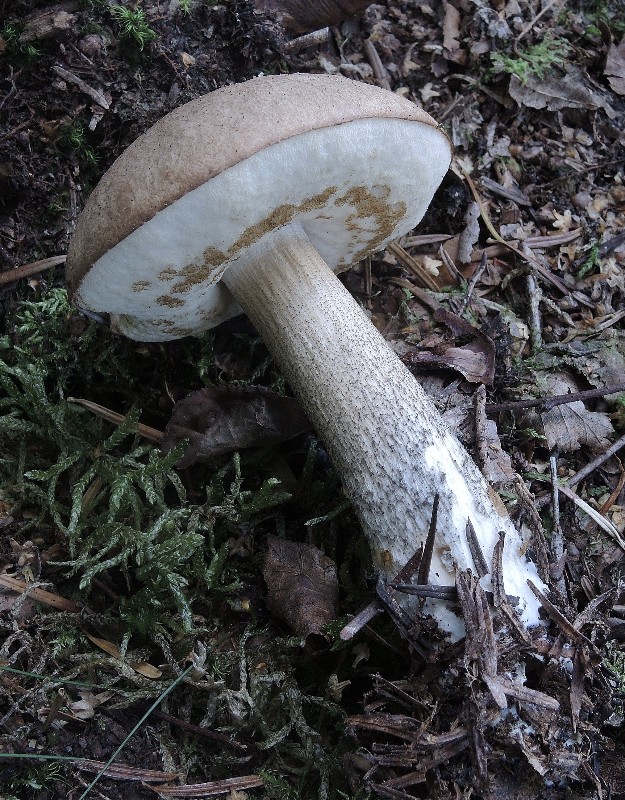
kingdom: Fungi
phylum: Basidiomycota
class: Agaricomycetes
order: Boletales
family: Boletaceae
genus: Leccinum
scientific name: Leccinum scabrum
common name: brun skælrørhat
